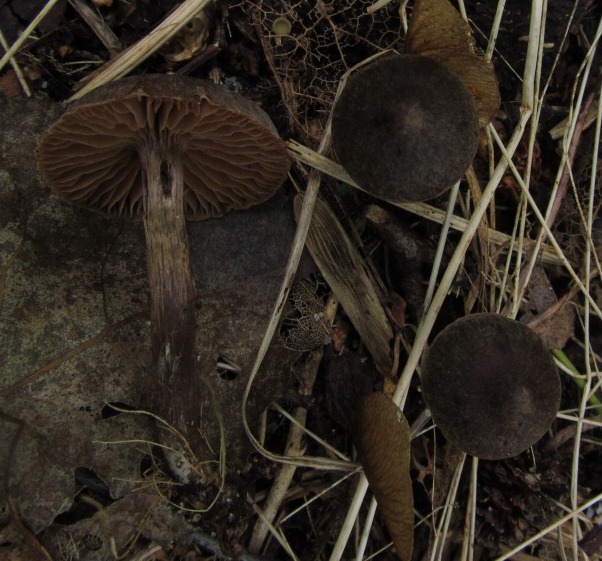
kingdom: Fungi
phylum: Basidiomycota
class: Agaricomycetes
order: Agaricales
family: Cortinariaceae
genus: Cortinarius
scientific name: Cortinarius umbrinolens
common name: mørk slørhat
